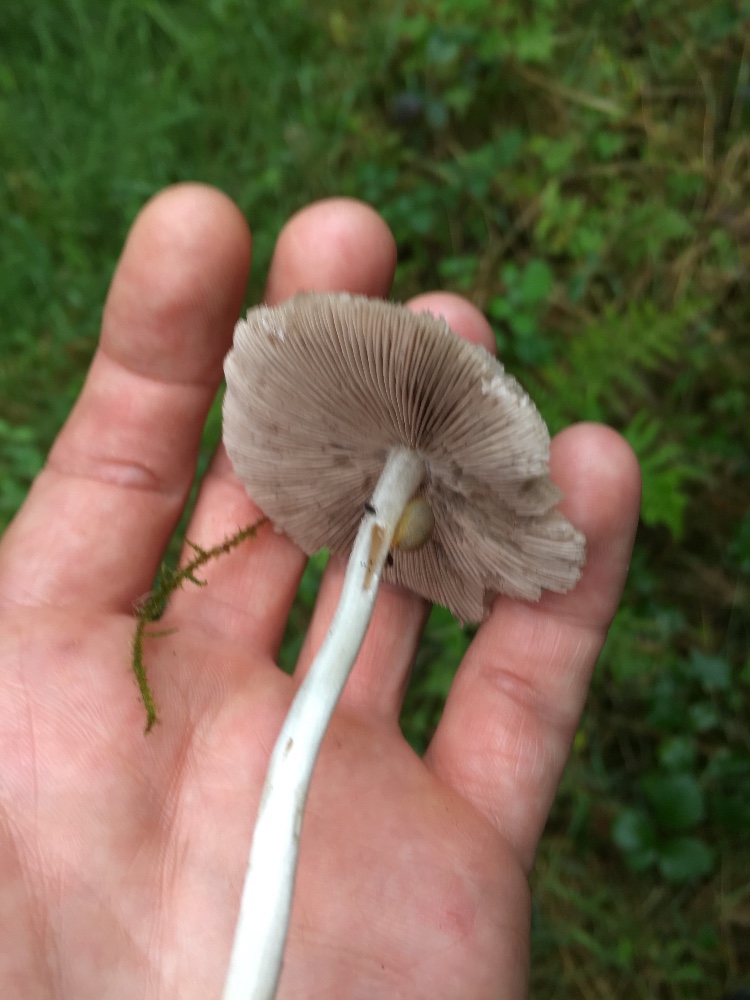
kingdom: Fungi
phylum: Basidiomycota
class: Agaricomycetes
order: Agaricales
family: Psathyrellaceae
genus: Candolleomyces
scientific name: Candolleomyces candolleanus
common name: Candolles mørkhat
